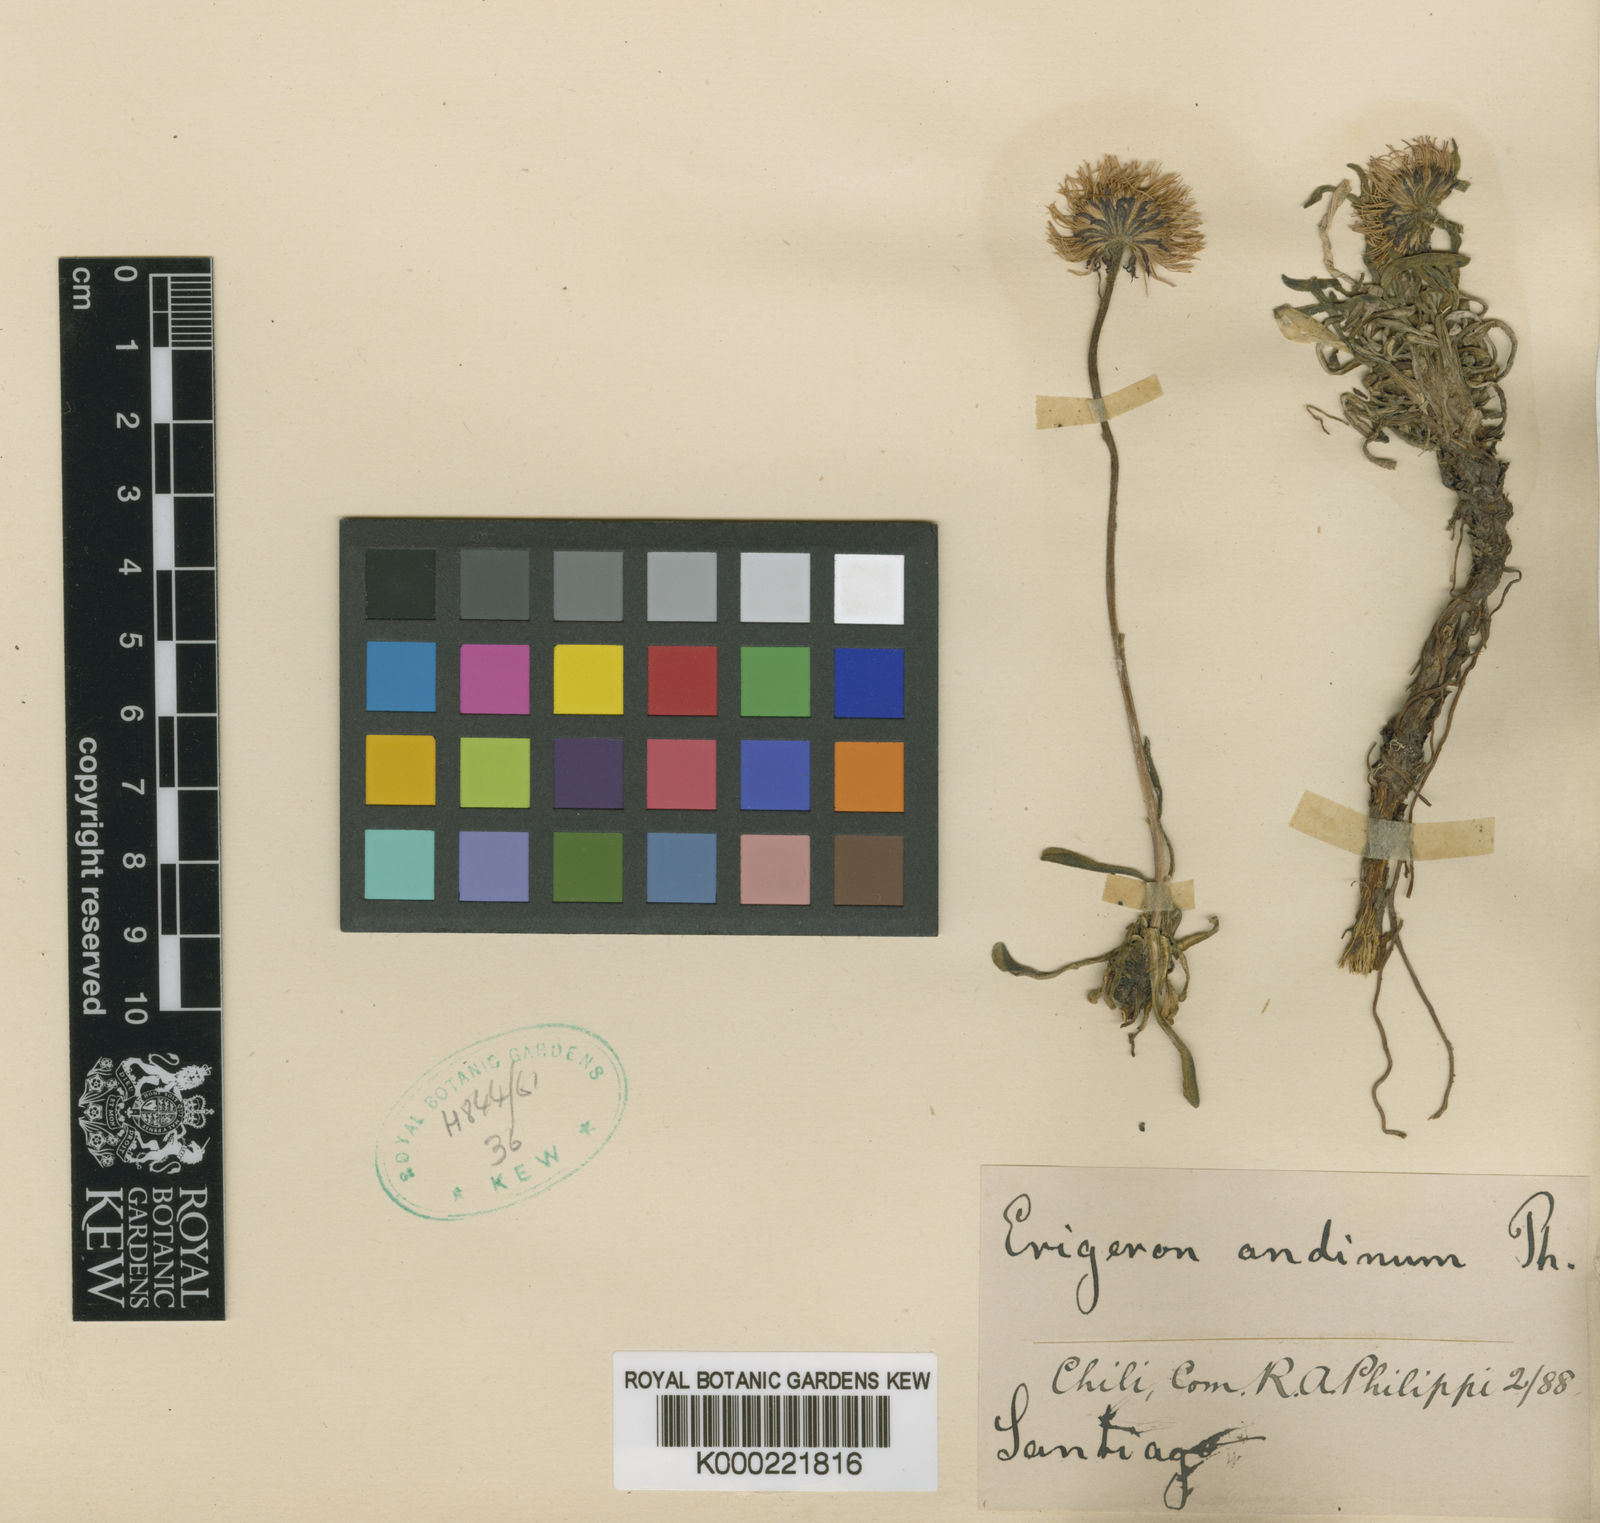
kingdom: Plantae
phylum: Tracheophyta
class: Magnoliopsida
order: Asterales
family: Asteraceae
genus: Erigeron
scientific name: Erigeron andicola
